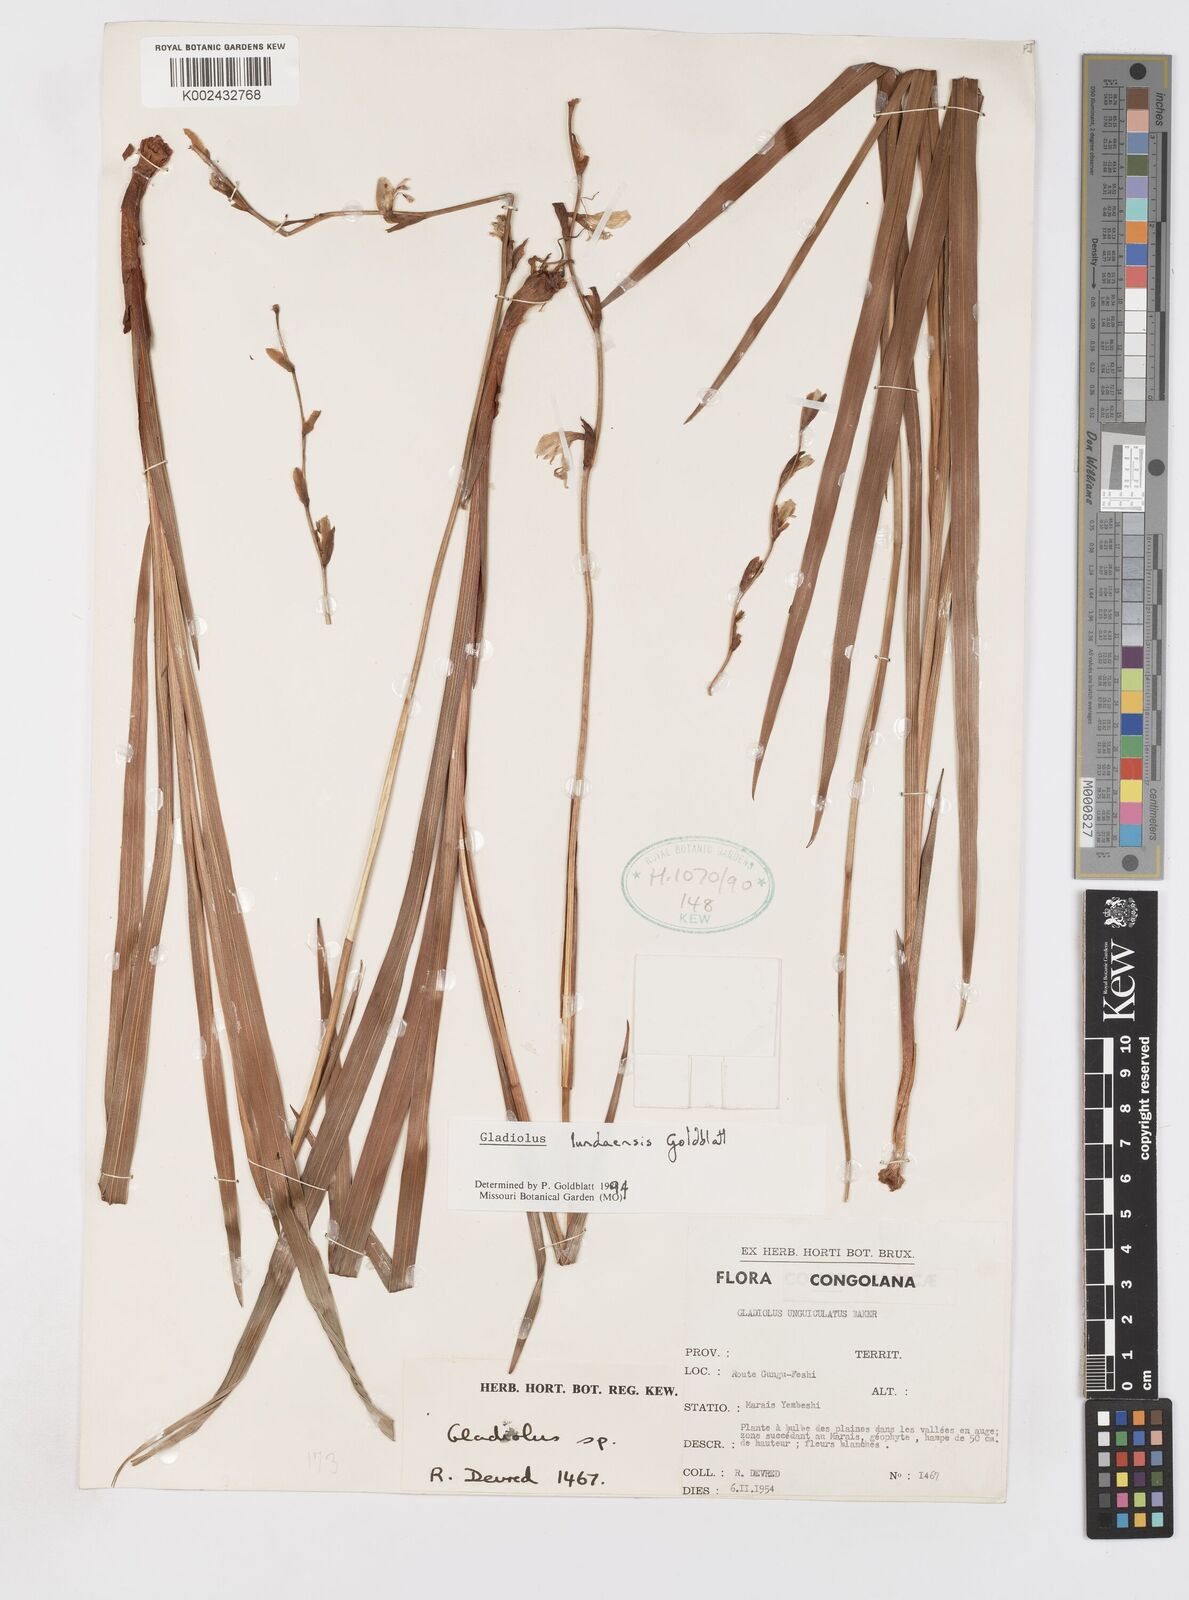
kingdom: Plantae
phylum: Tracheophyta
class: Liliopsida
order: Asparagales
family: Iridaceae
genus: Gladiolus
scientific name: Gladiolus lundaensis
